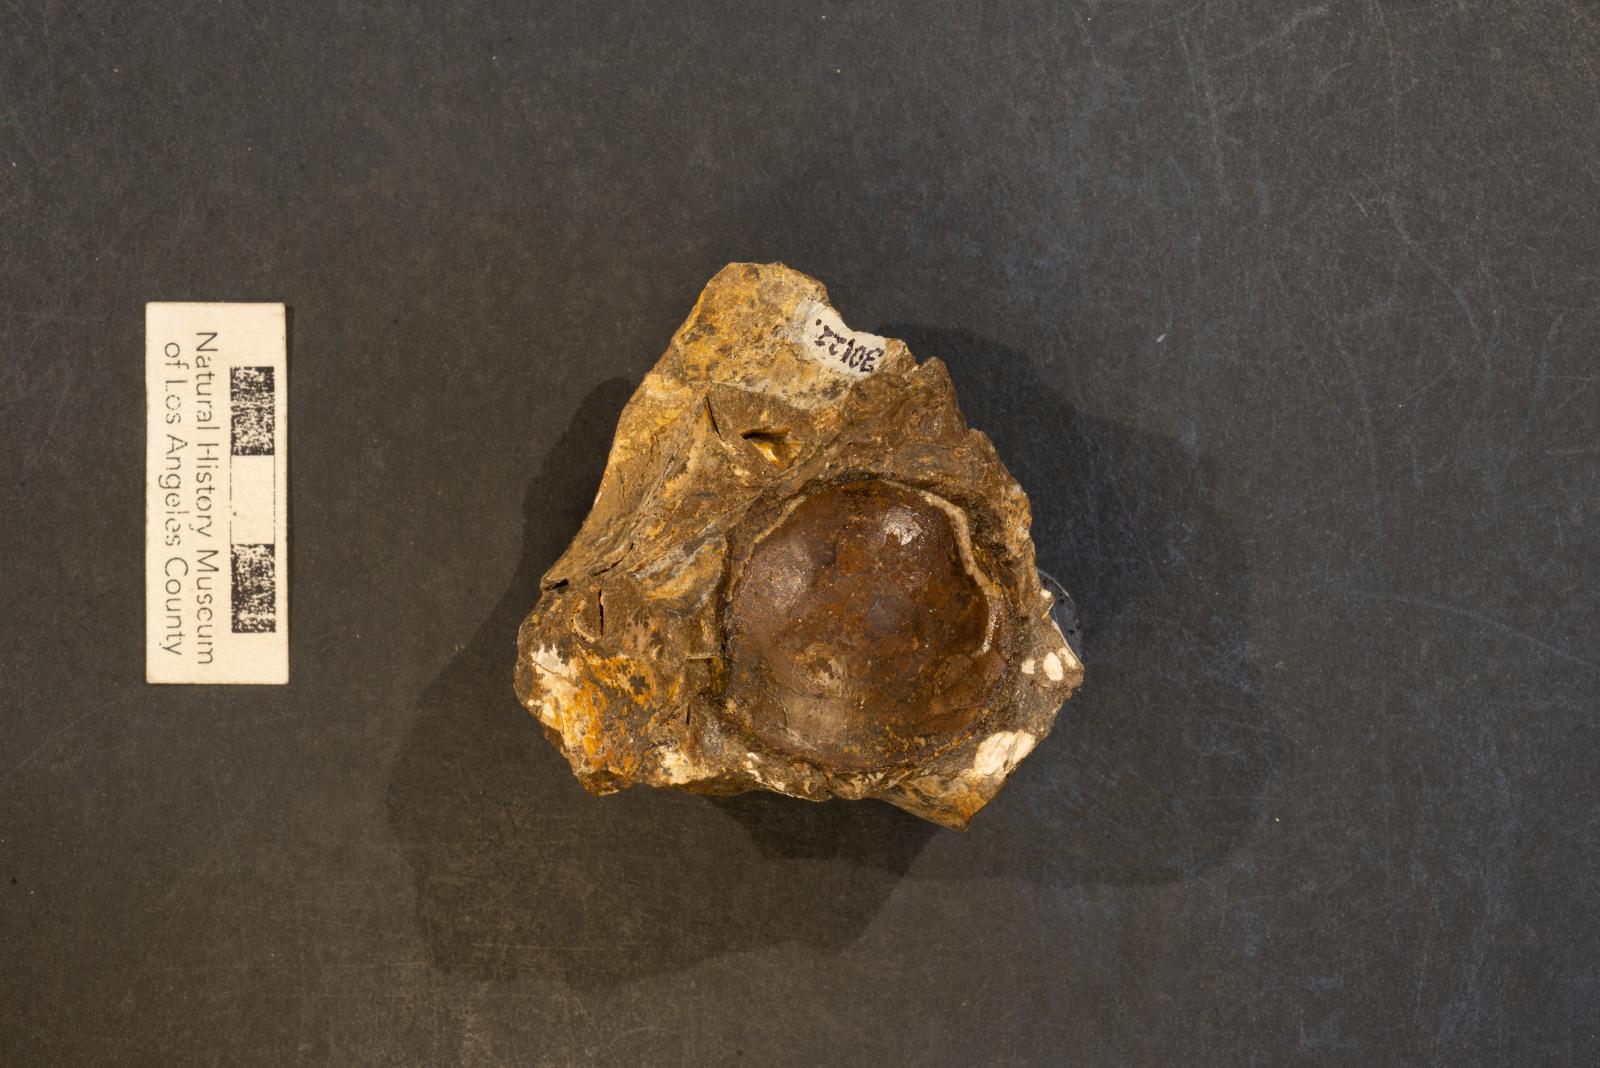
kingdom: Animalia
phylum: Mollusca
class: Bivalvia
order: Venerida
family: Veneridae
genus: Cyprimeria
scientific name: Cyprimeria moorei
